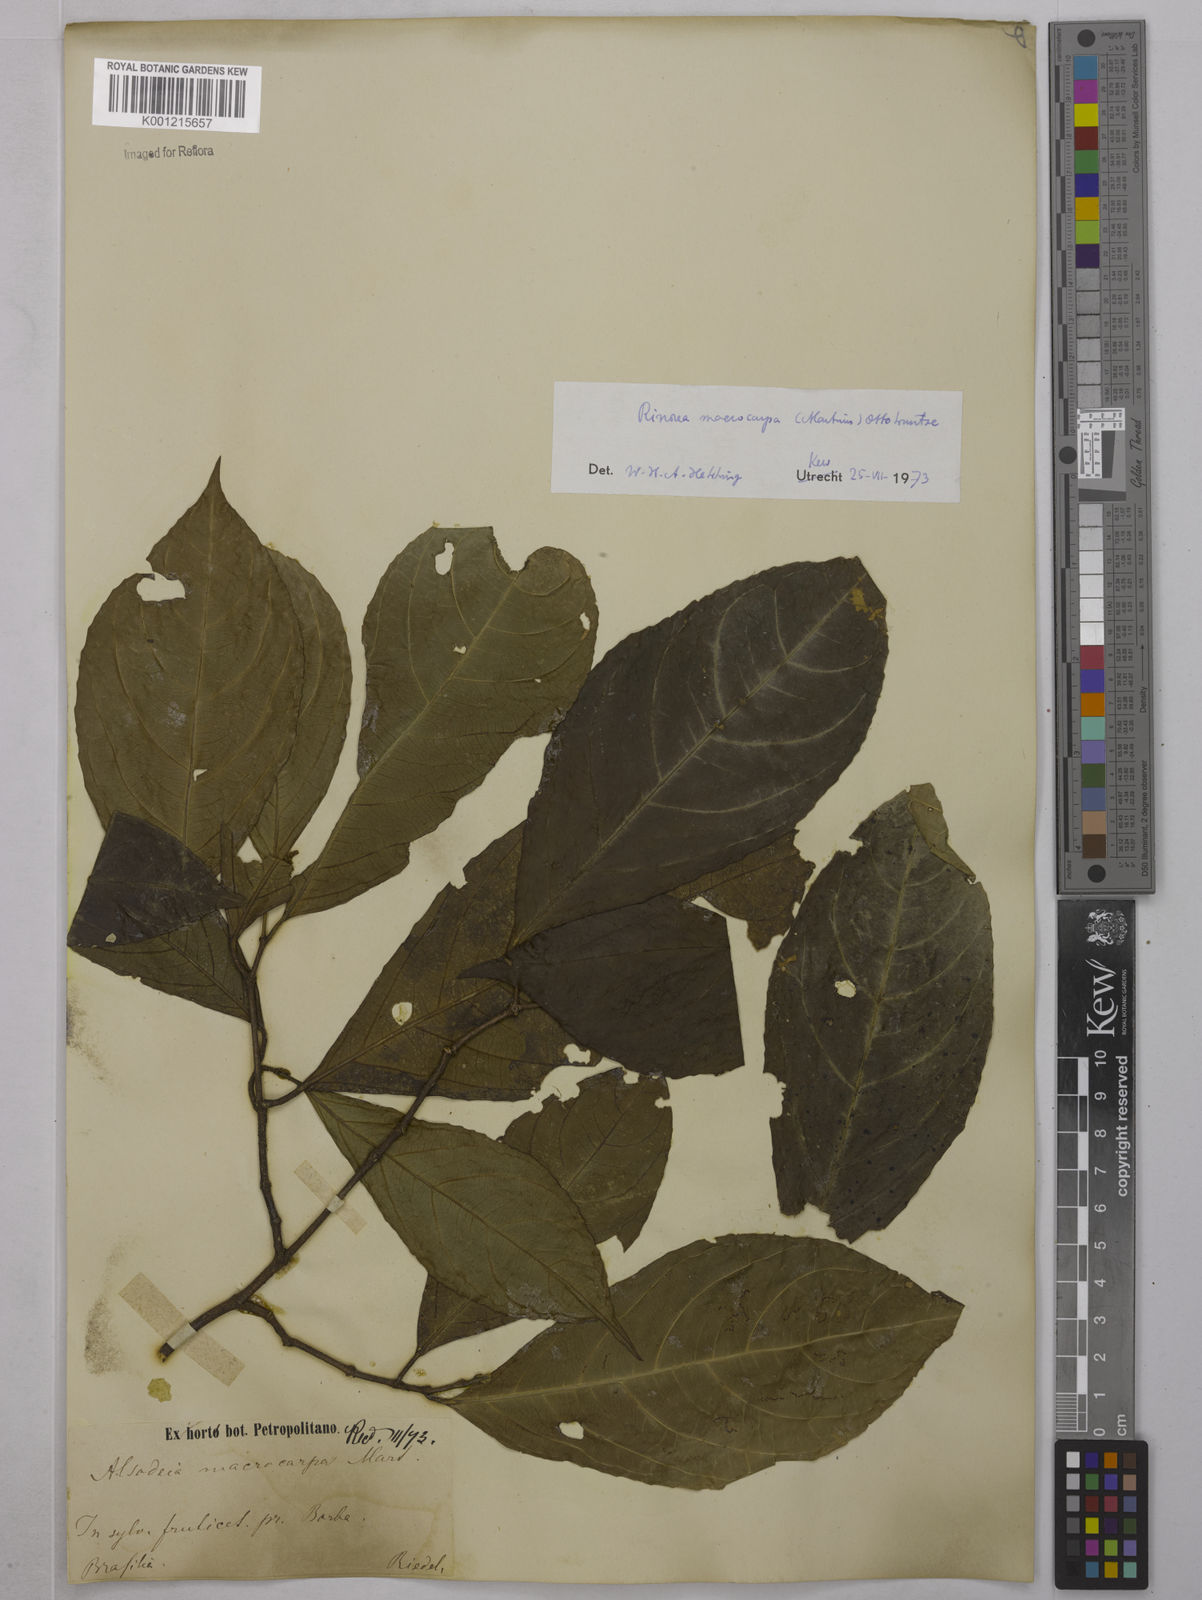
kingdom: Plantae
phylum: Tracheophyta
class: Magnoliopsida
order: Malpighiales
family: Violaceae
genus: Rinorea
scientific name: Rinorea macrocarpa
